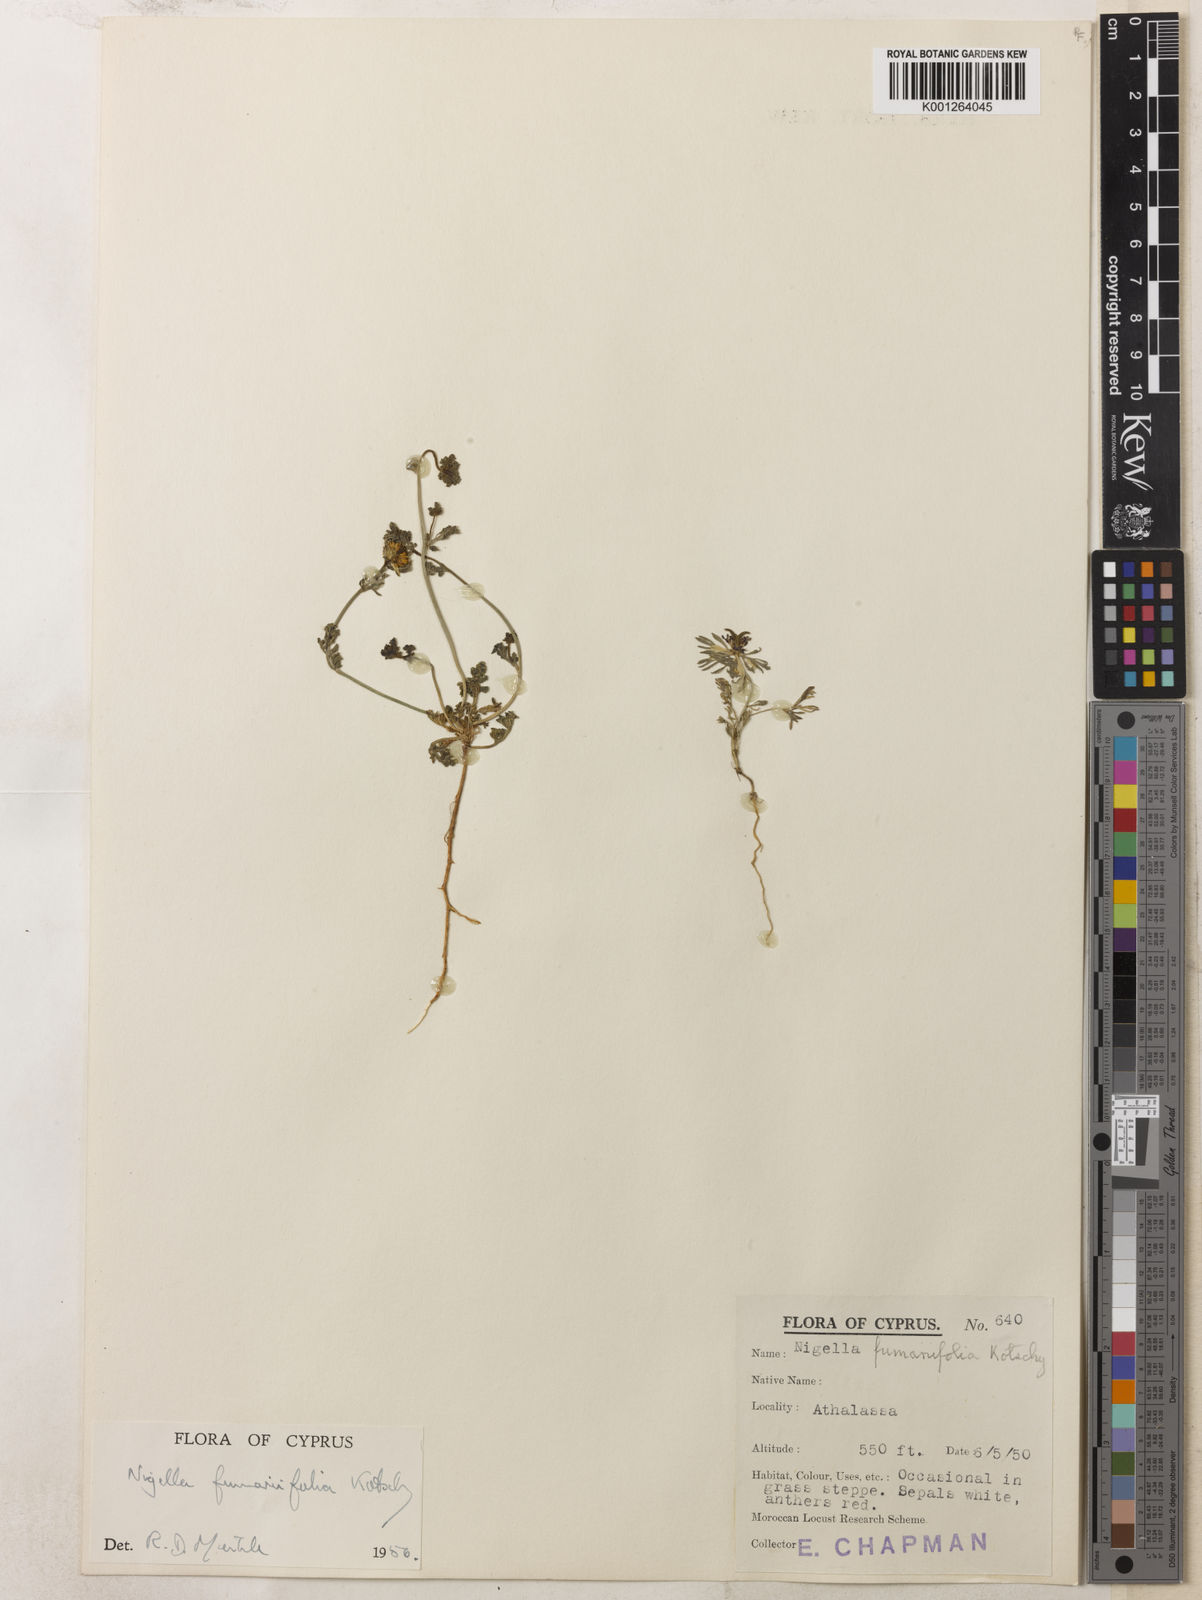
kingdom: Plantae
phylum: Tracheophyta
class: Magnoliopsida
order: Ranunculales
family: Ranunculaceae
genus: Nigella
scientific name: Nigella
